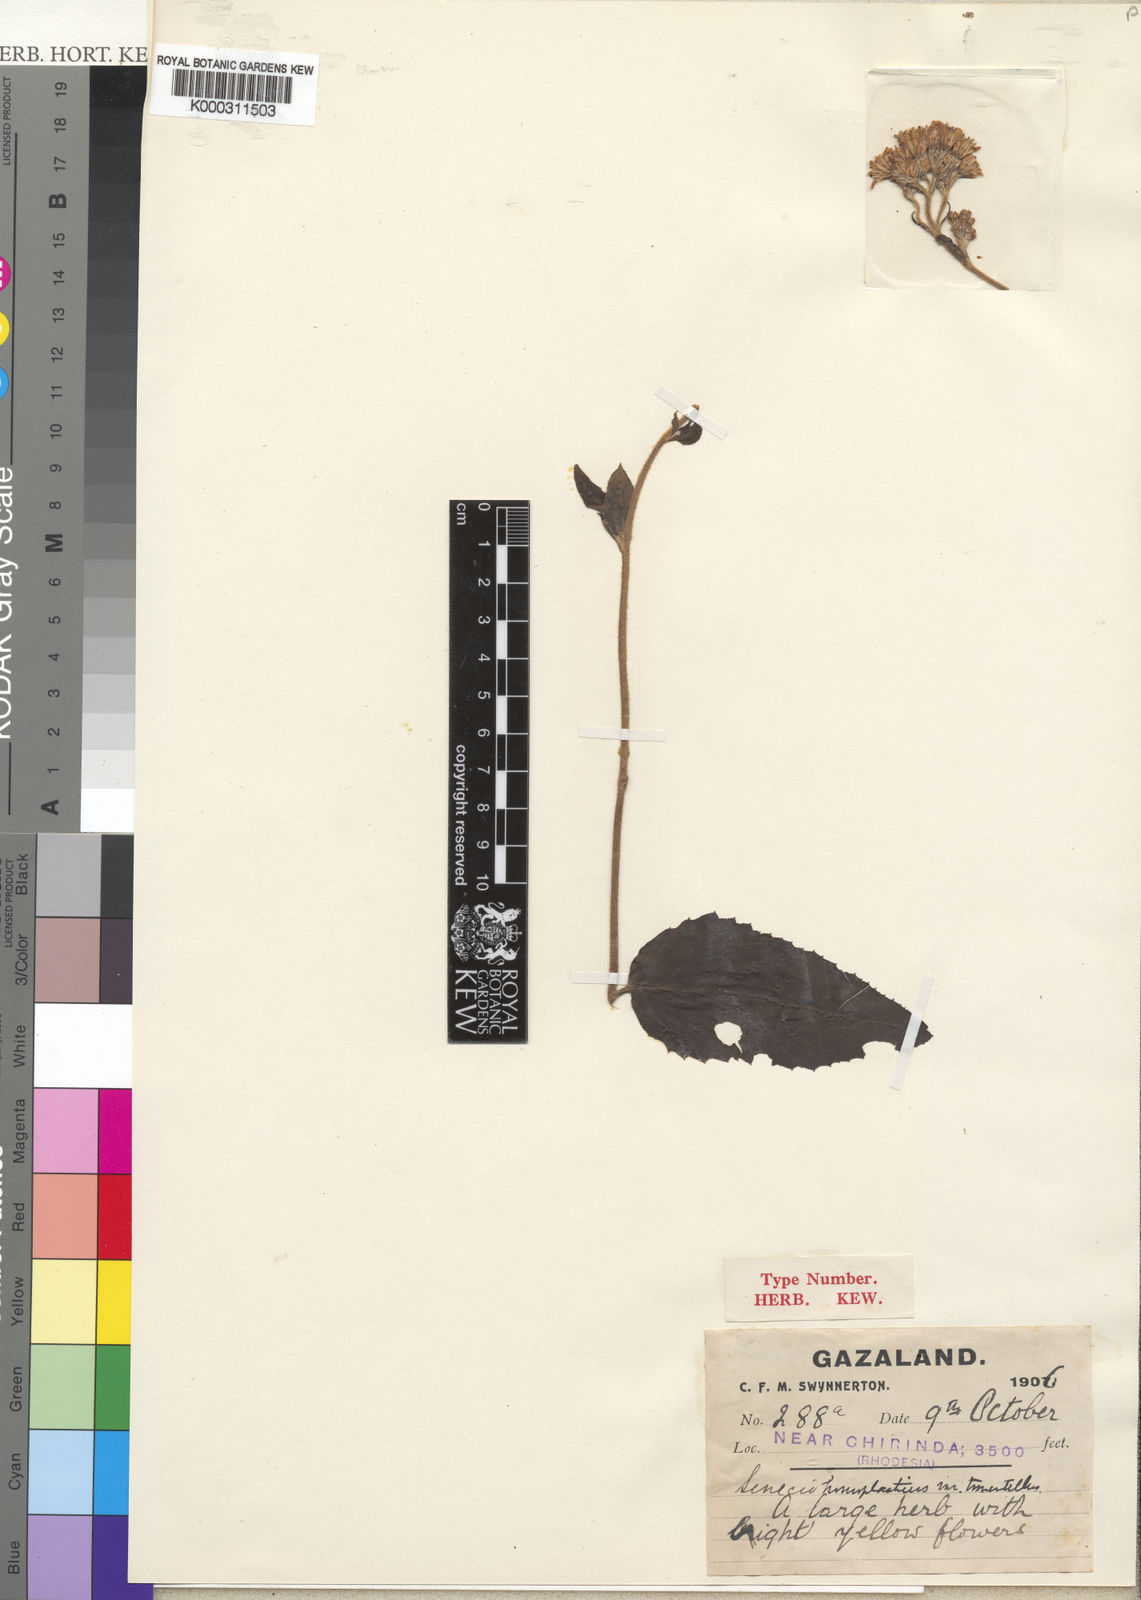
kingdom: Plantae
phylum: Tracheophyta
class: Magnoliopsida
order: Asterales
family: Asteraceae
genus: Senecio
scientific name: Senecio triactinus
